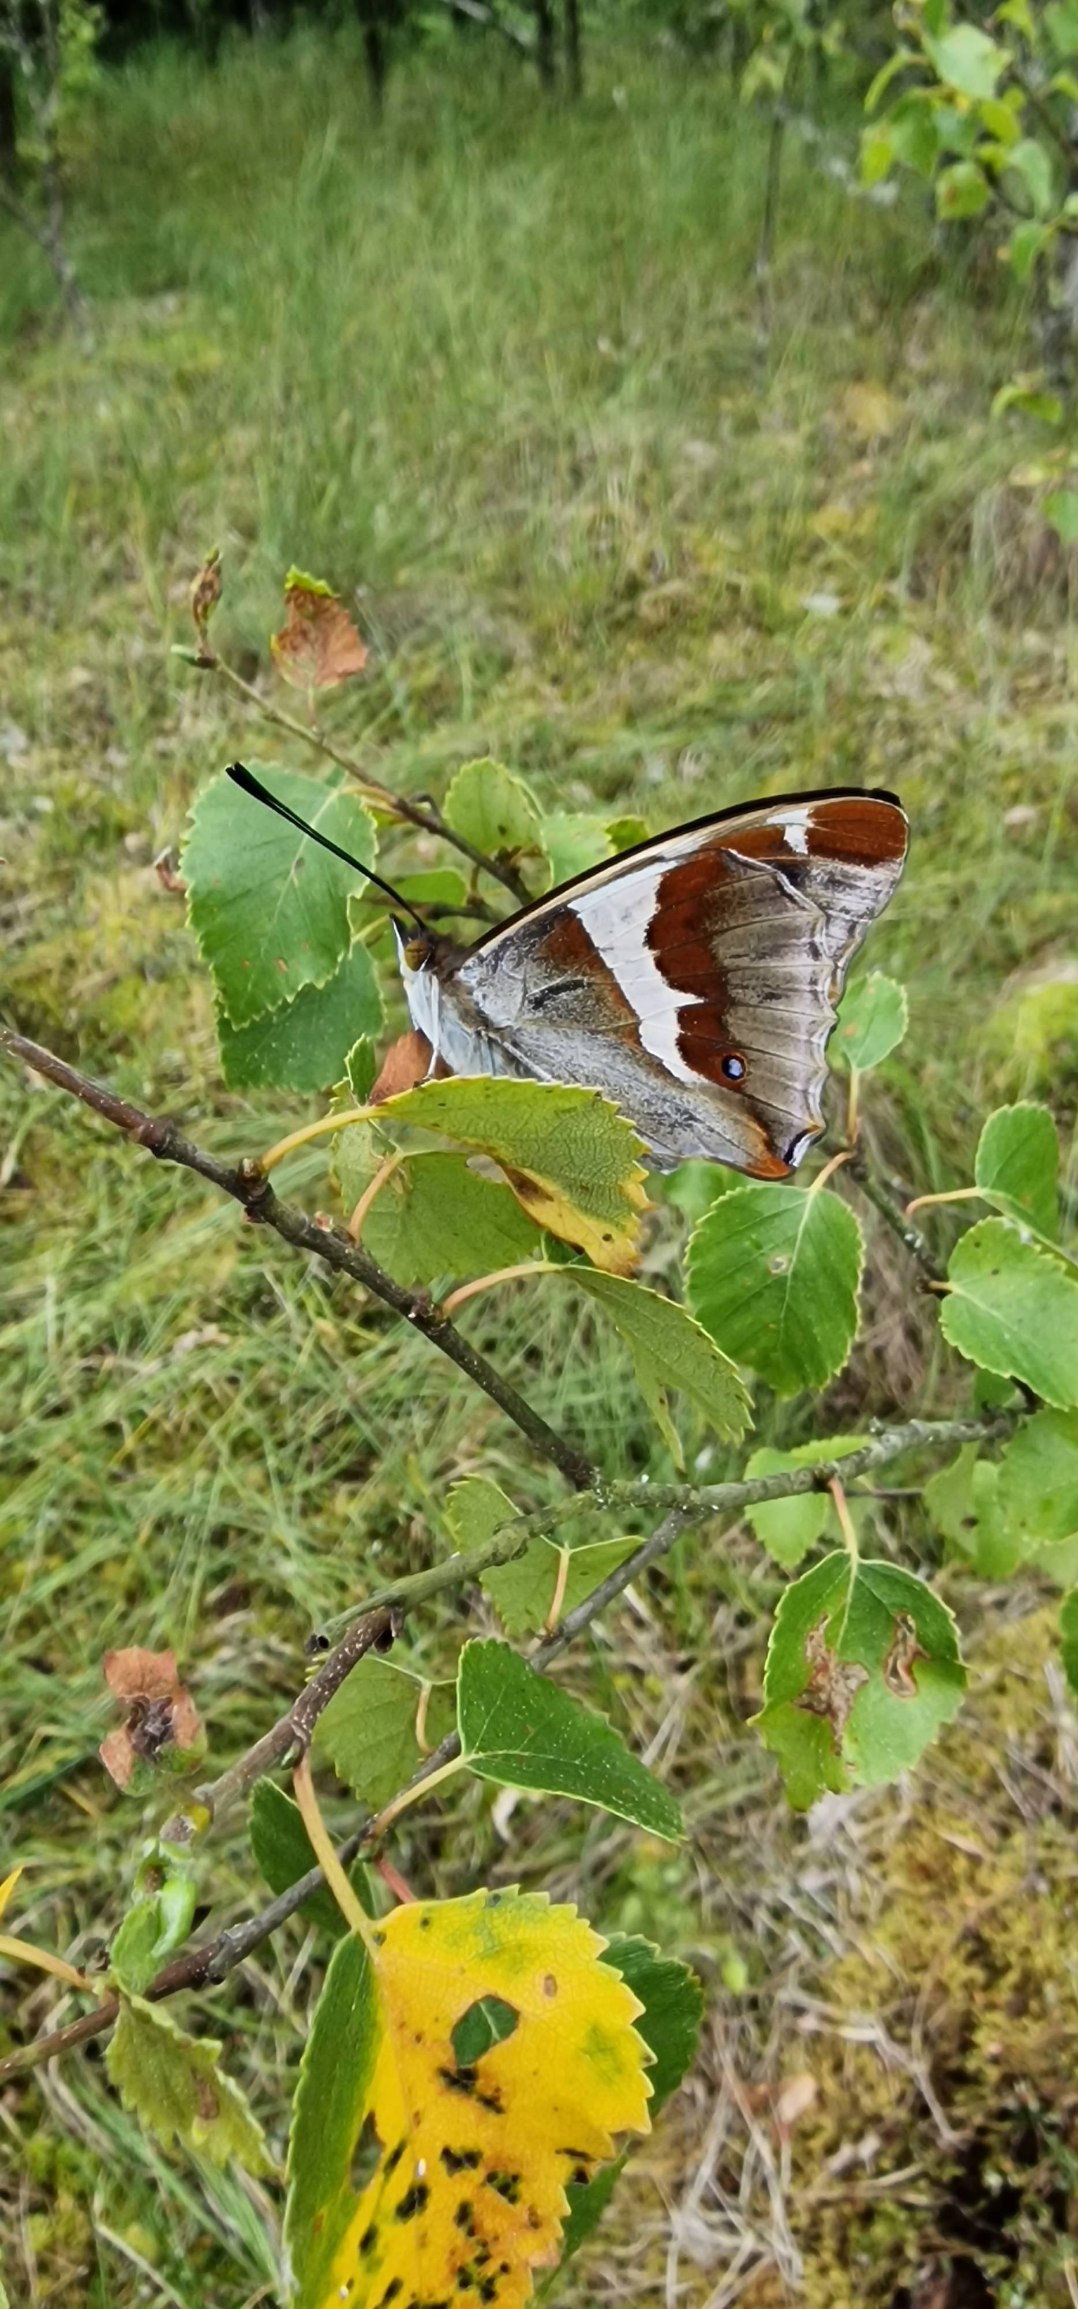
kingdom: Animalia
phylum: Arthropoda
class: Insecta
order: Lepidoptera
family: Nymphalidae
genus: Apatura
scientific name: Apatura iris
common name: Iris
